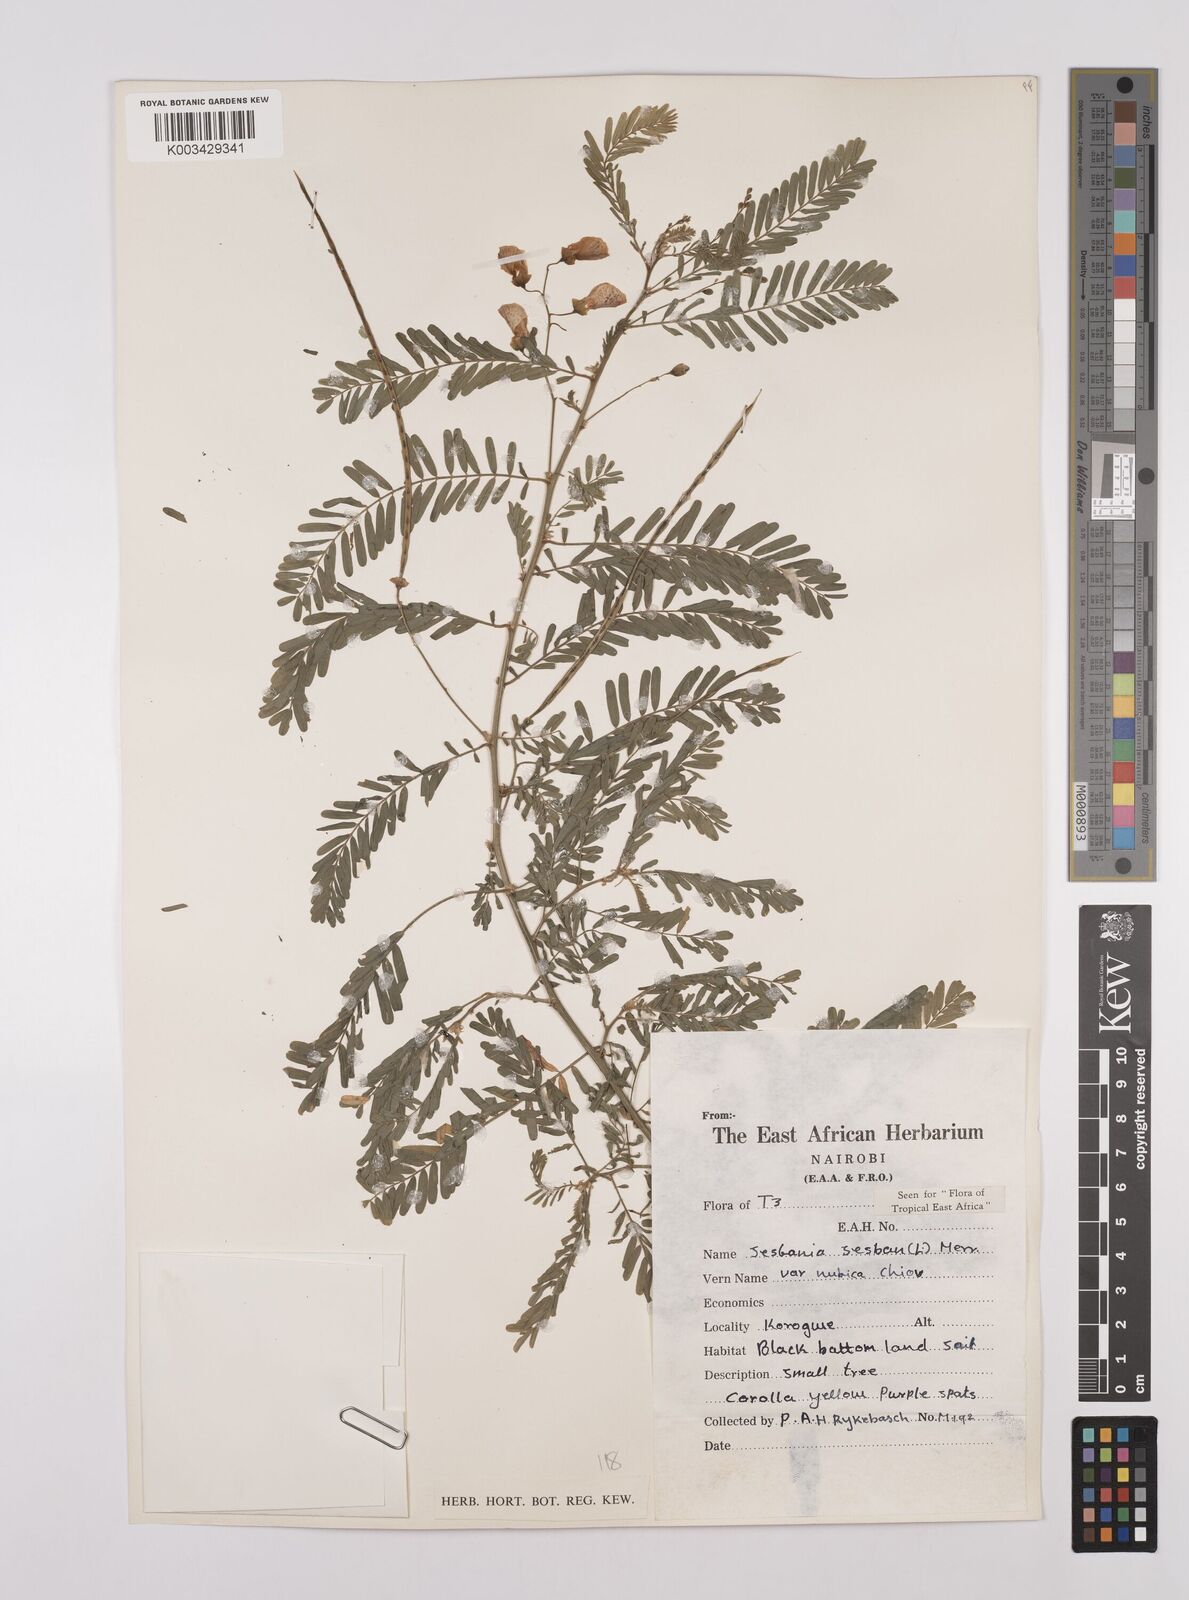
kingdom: Plantae
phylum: Tracheophyta
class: Magnoliopsida
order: Fabales
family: Fabaceae
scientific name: Fabaceae
